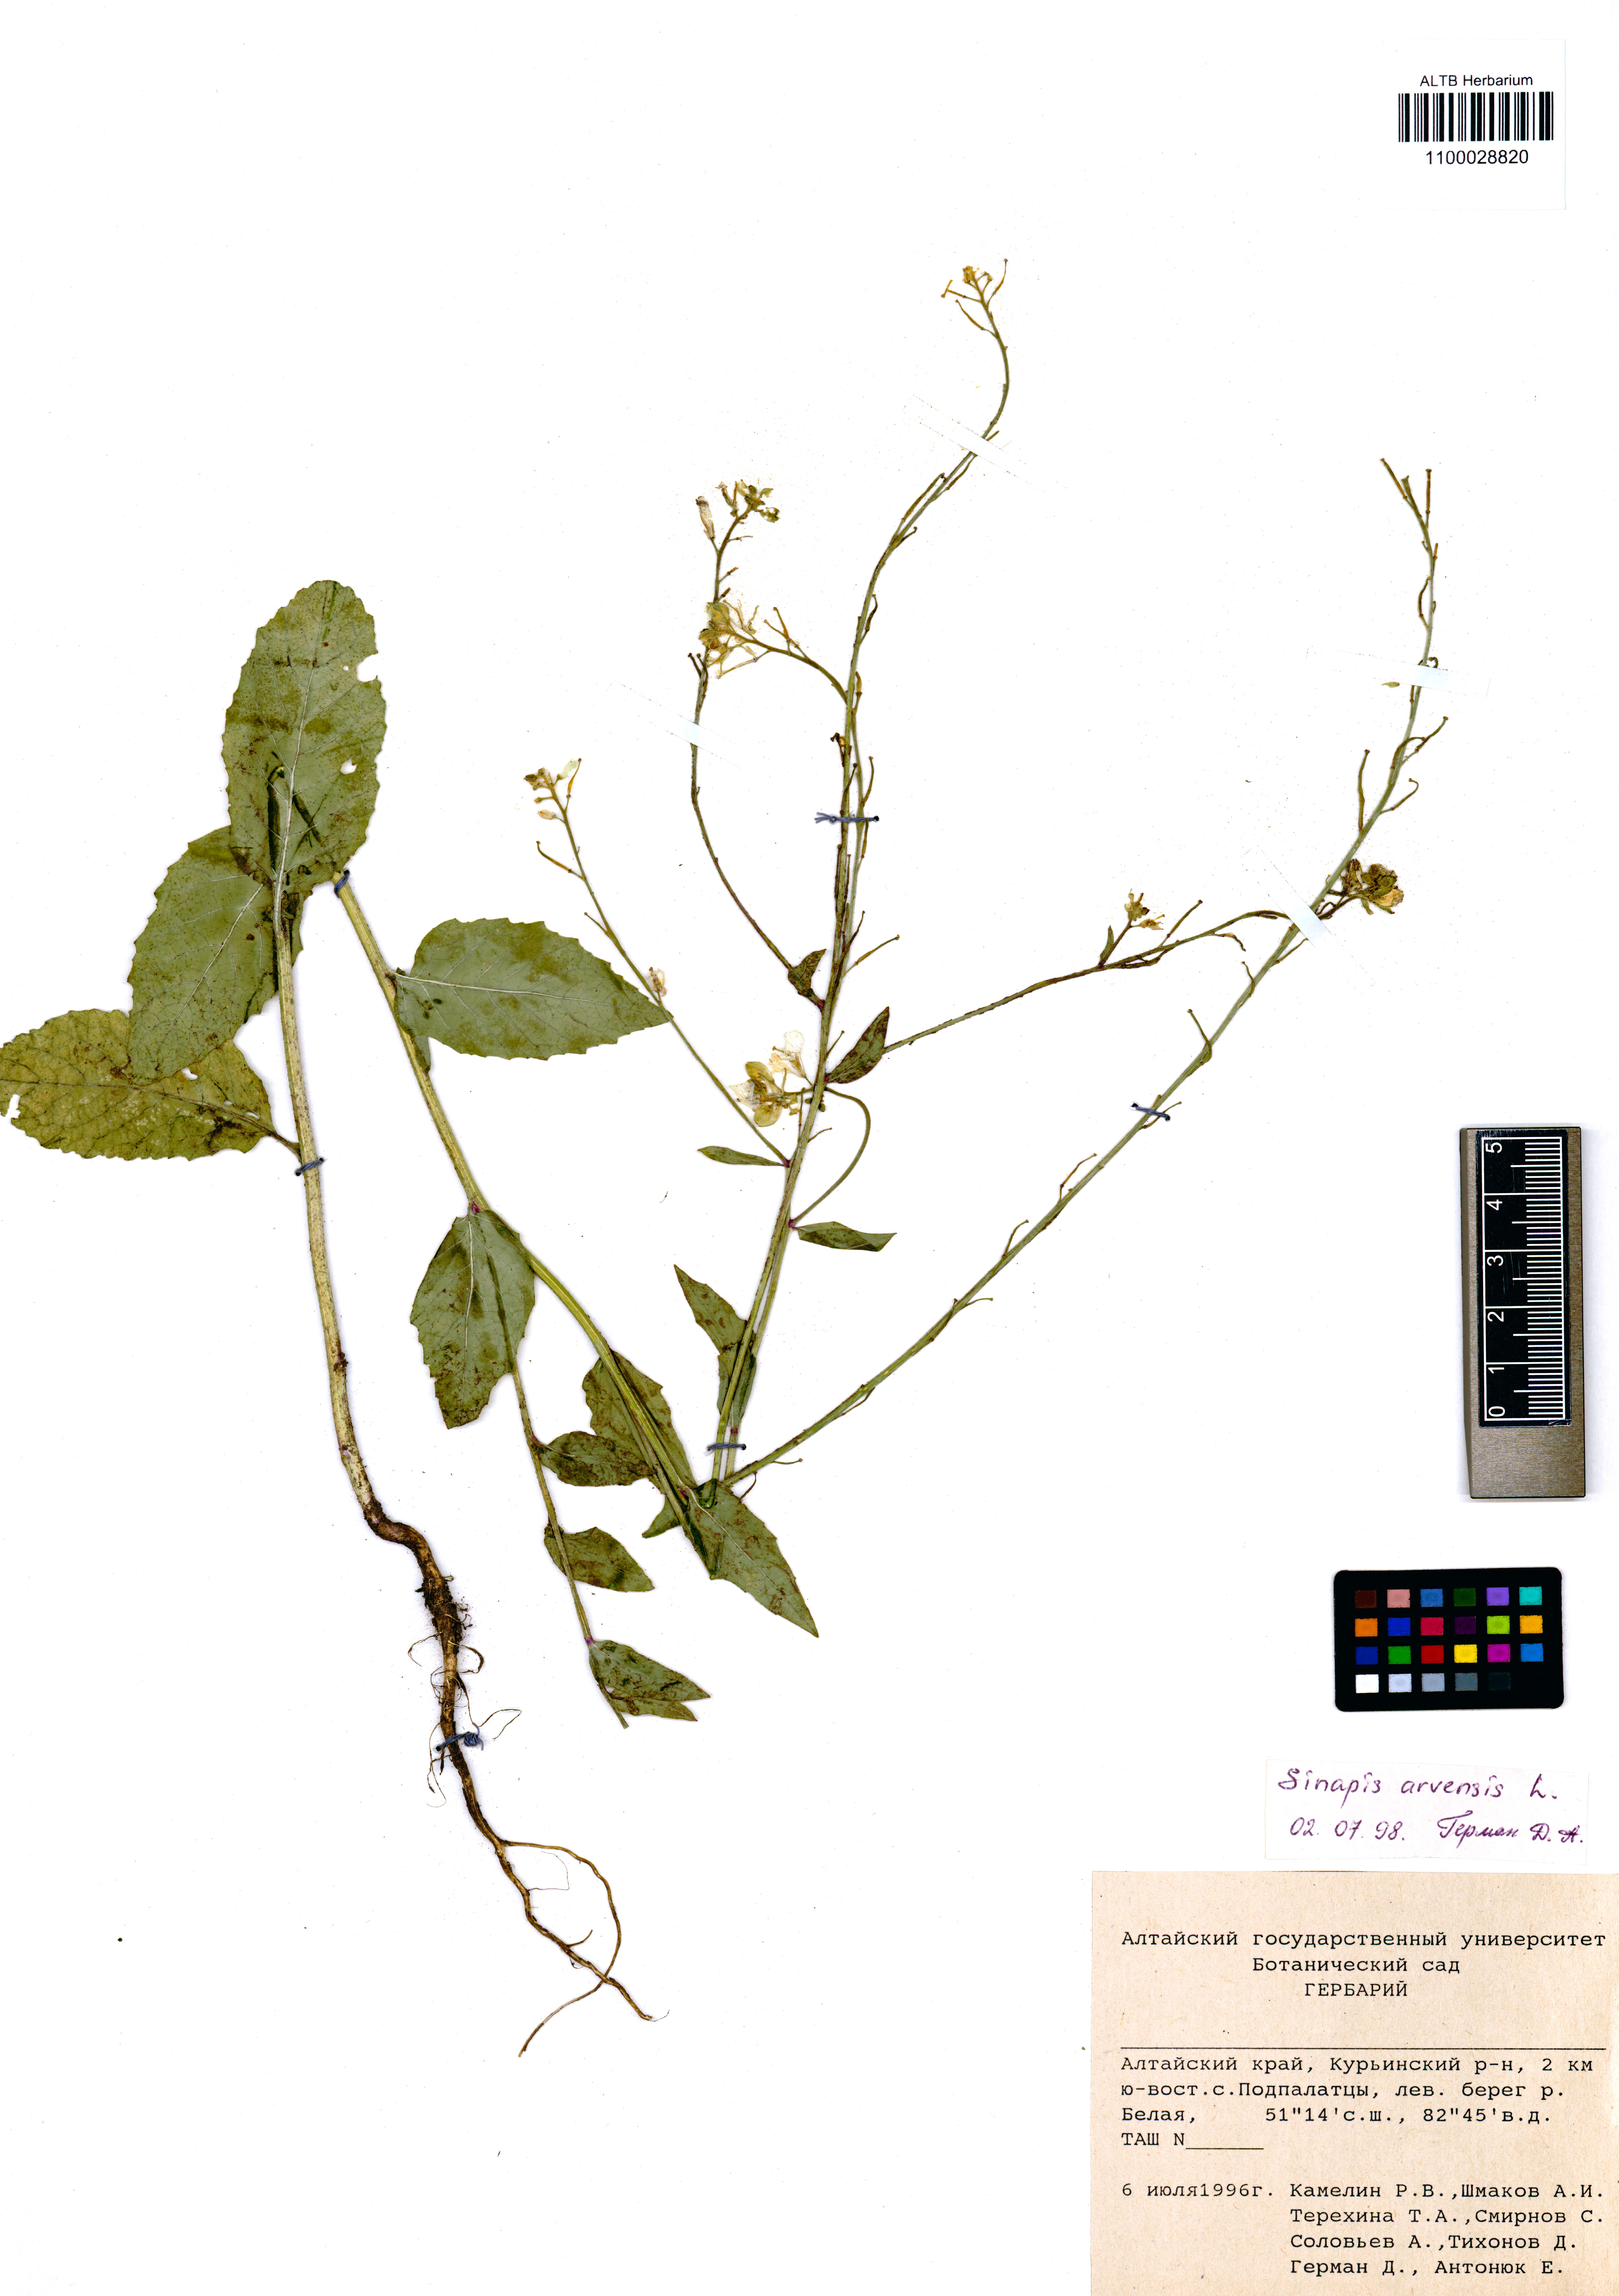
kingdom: Plantae
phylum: Tracheophyta
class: Magnoliopsida
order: Brassicales
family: Brassicaceae
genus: Sinapis
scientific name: Sinapis arvensis
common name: Charlock
